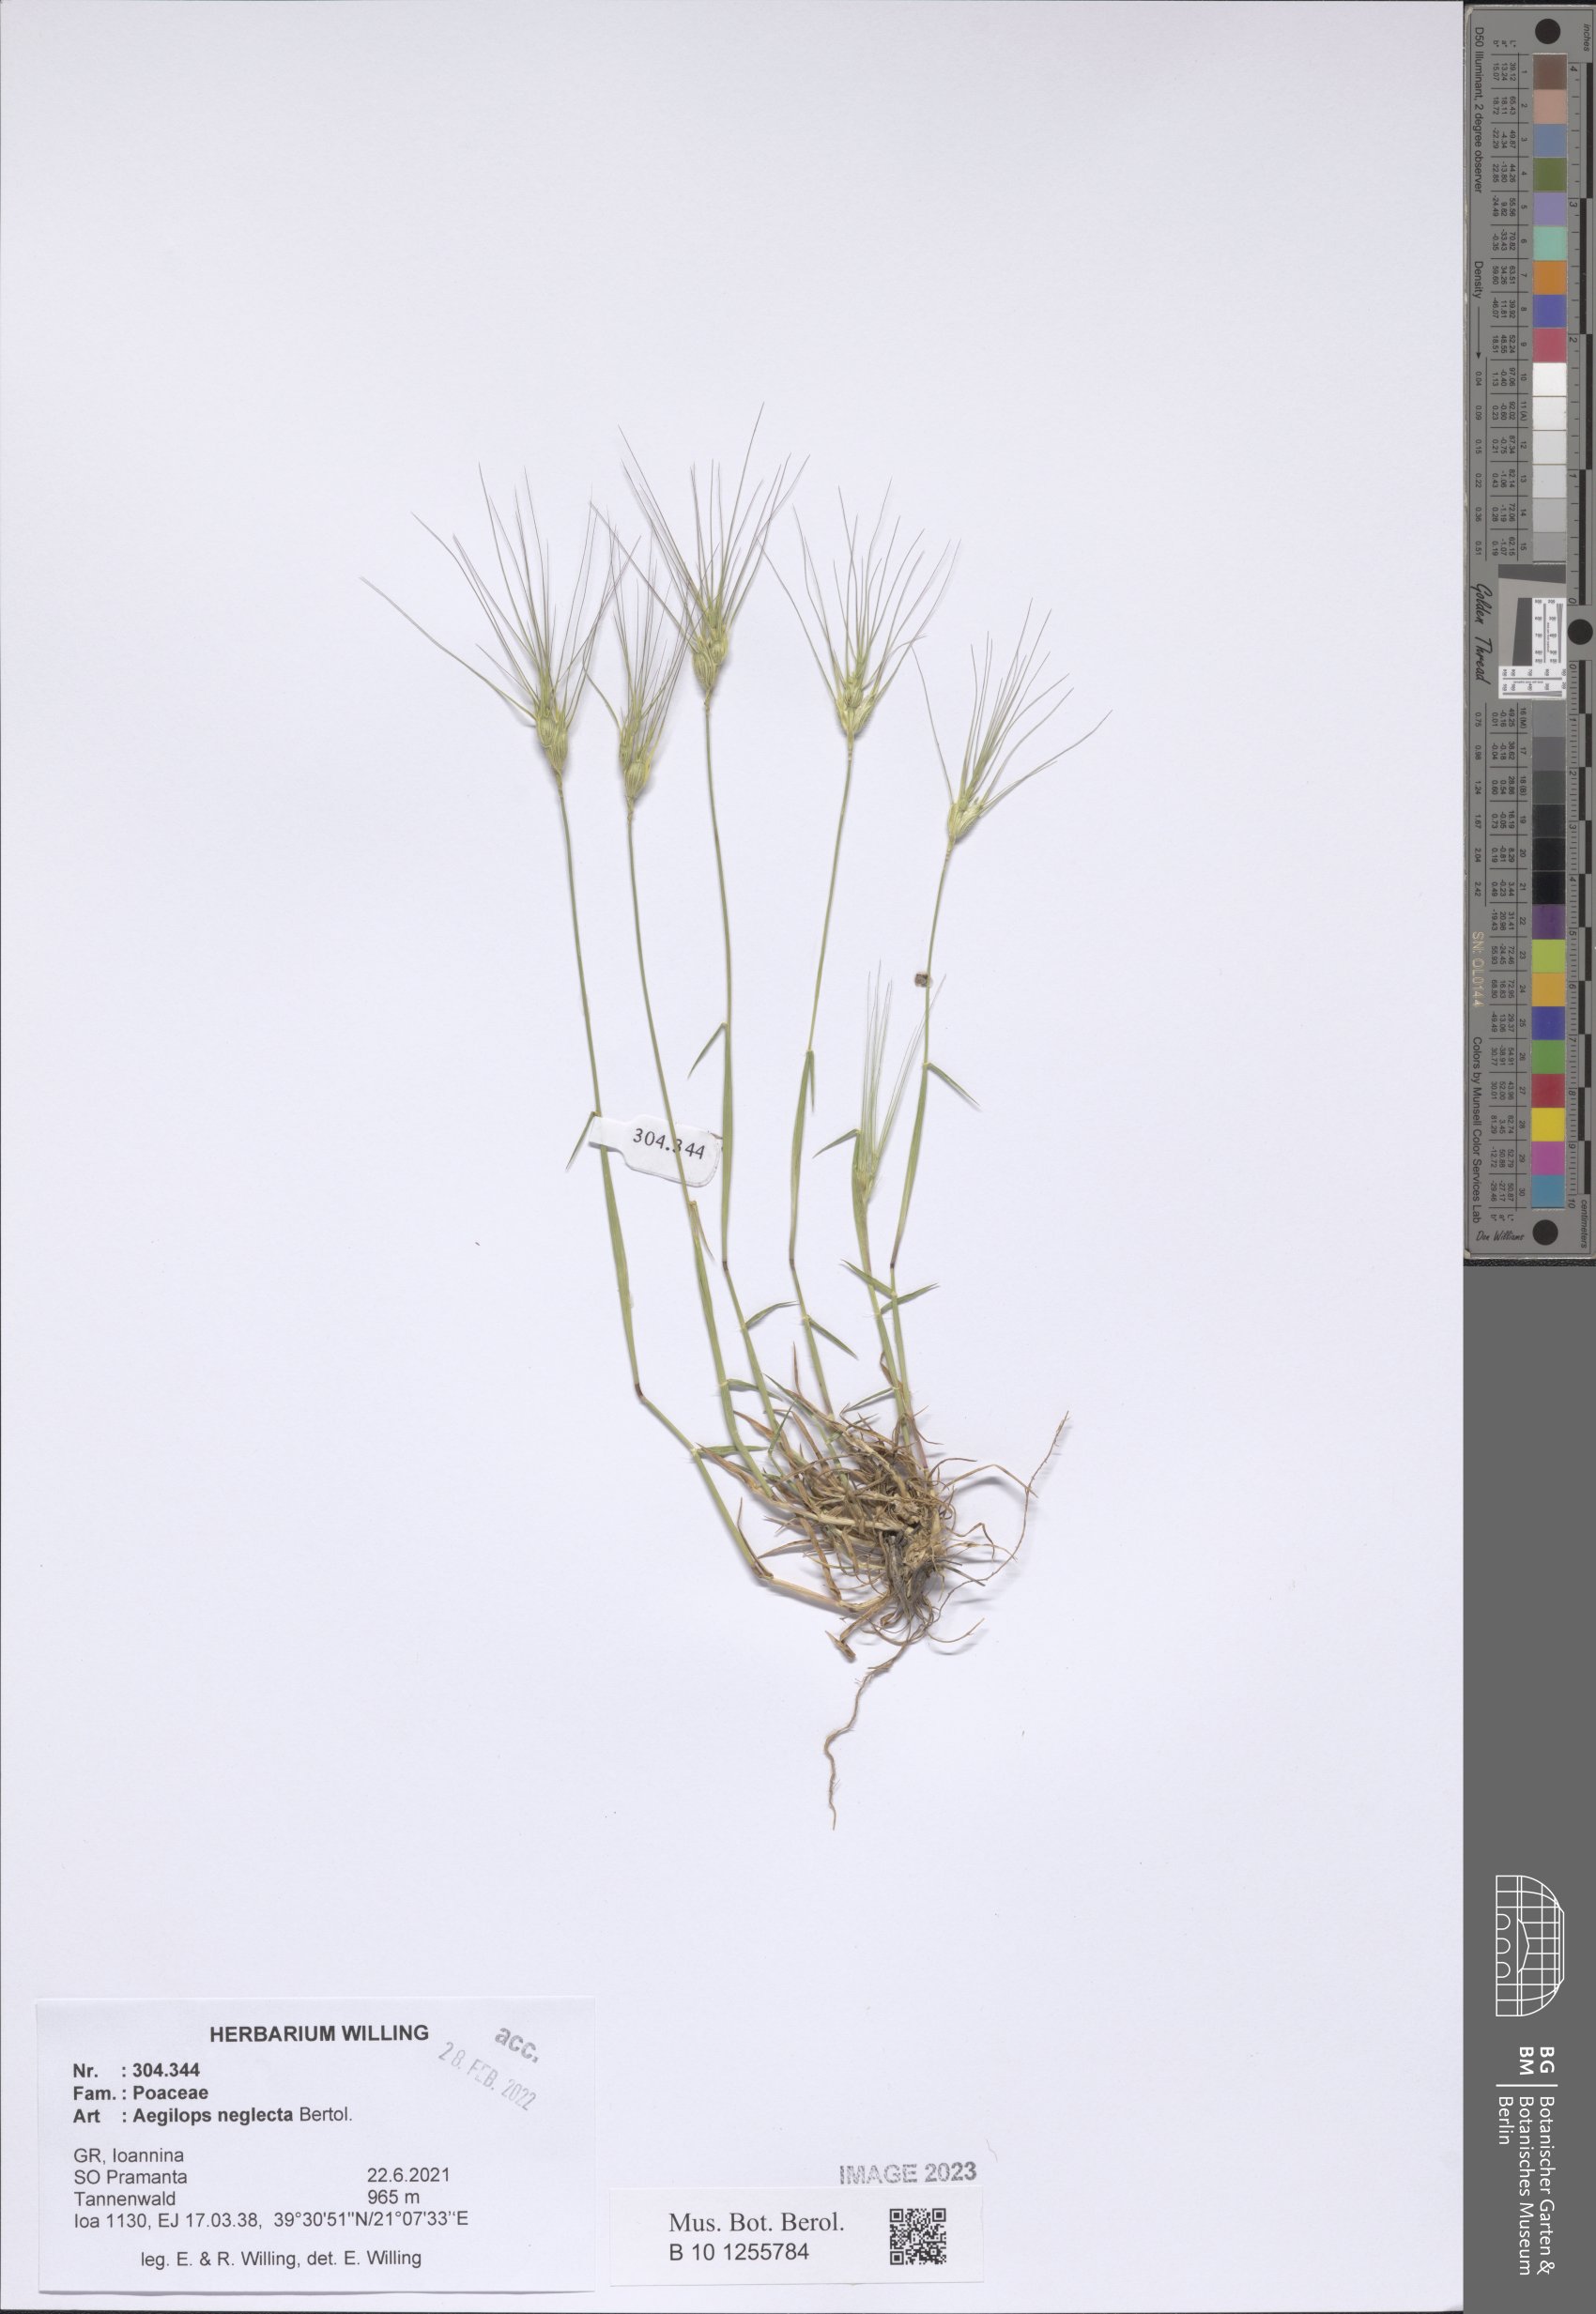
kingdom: Plantae
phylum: Tracheophyta
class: Liliopsida
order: Poales
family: Poaceae
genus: Aegilops
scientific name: Aegilops neglecta
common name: Three-awn goat grass
